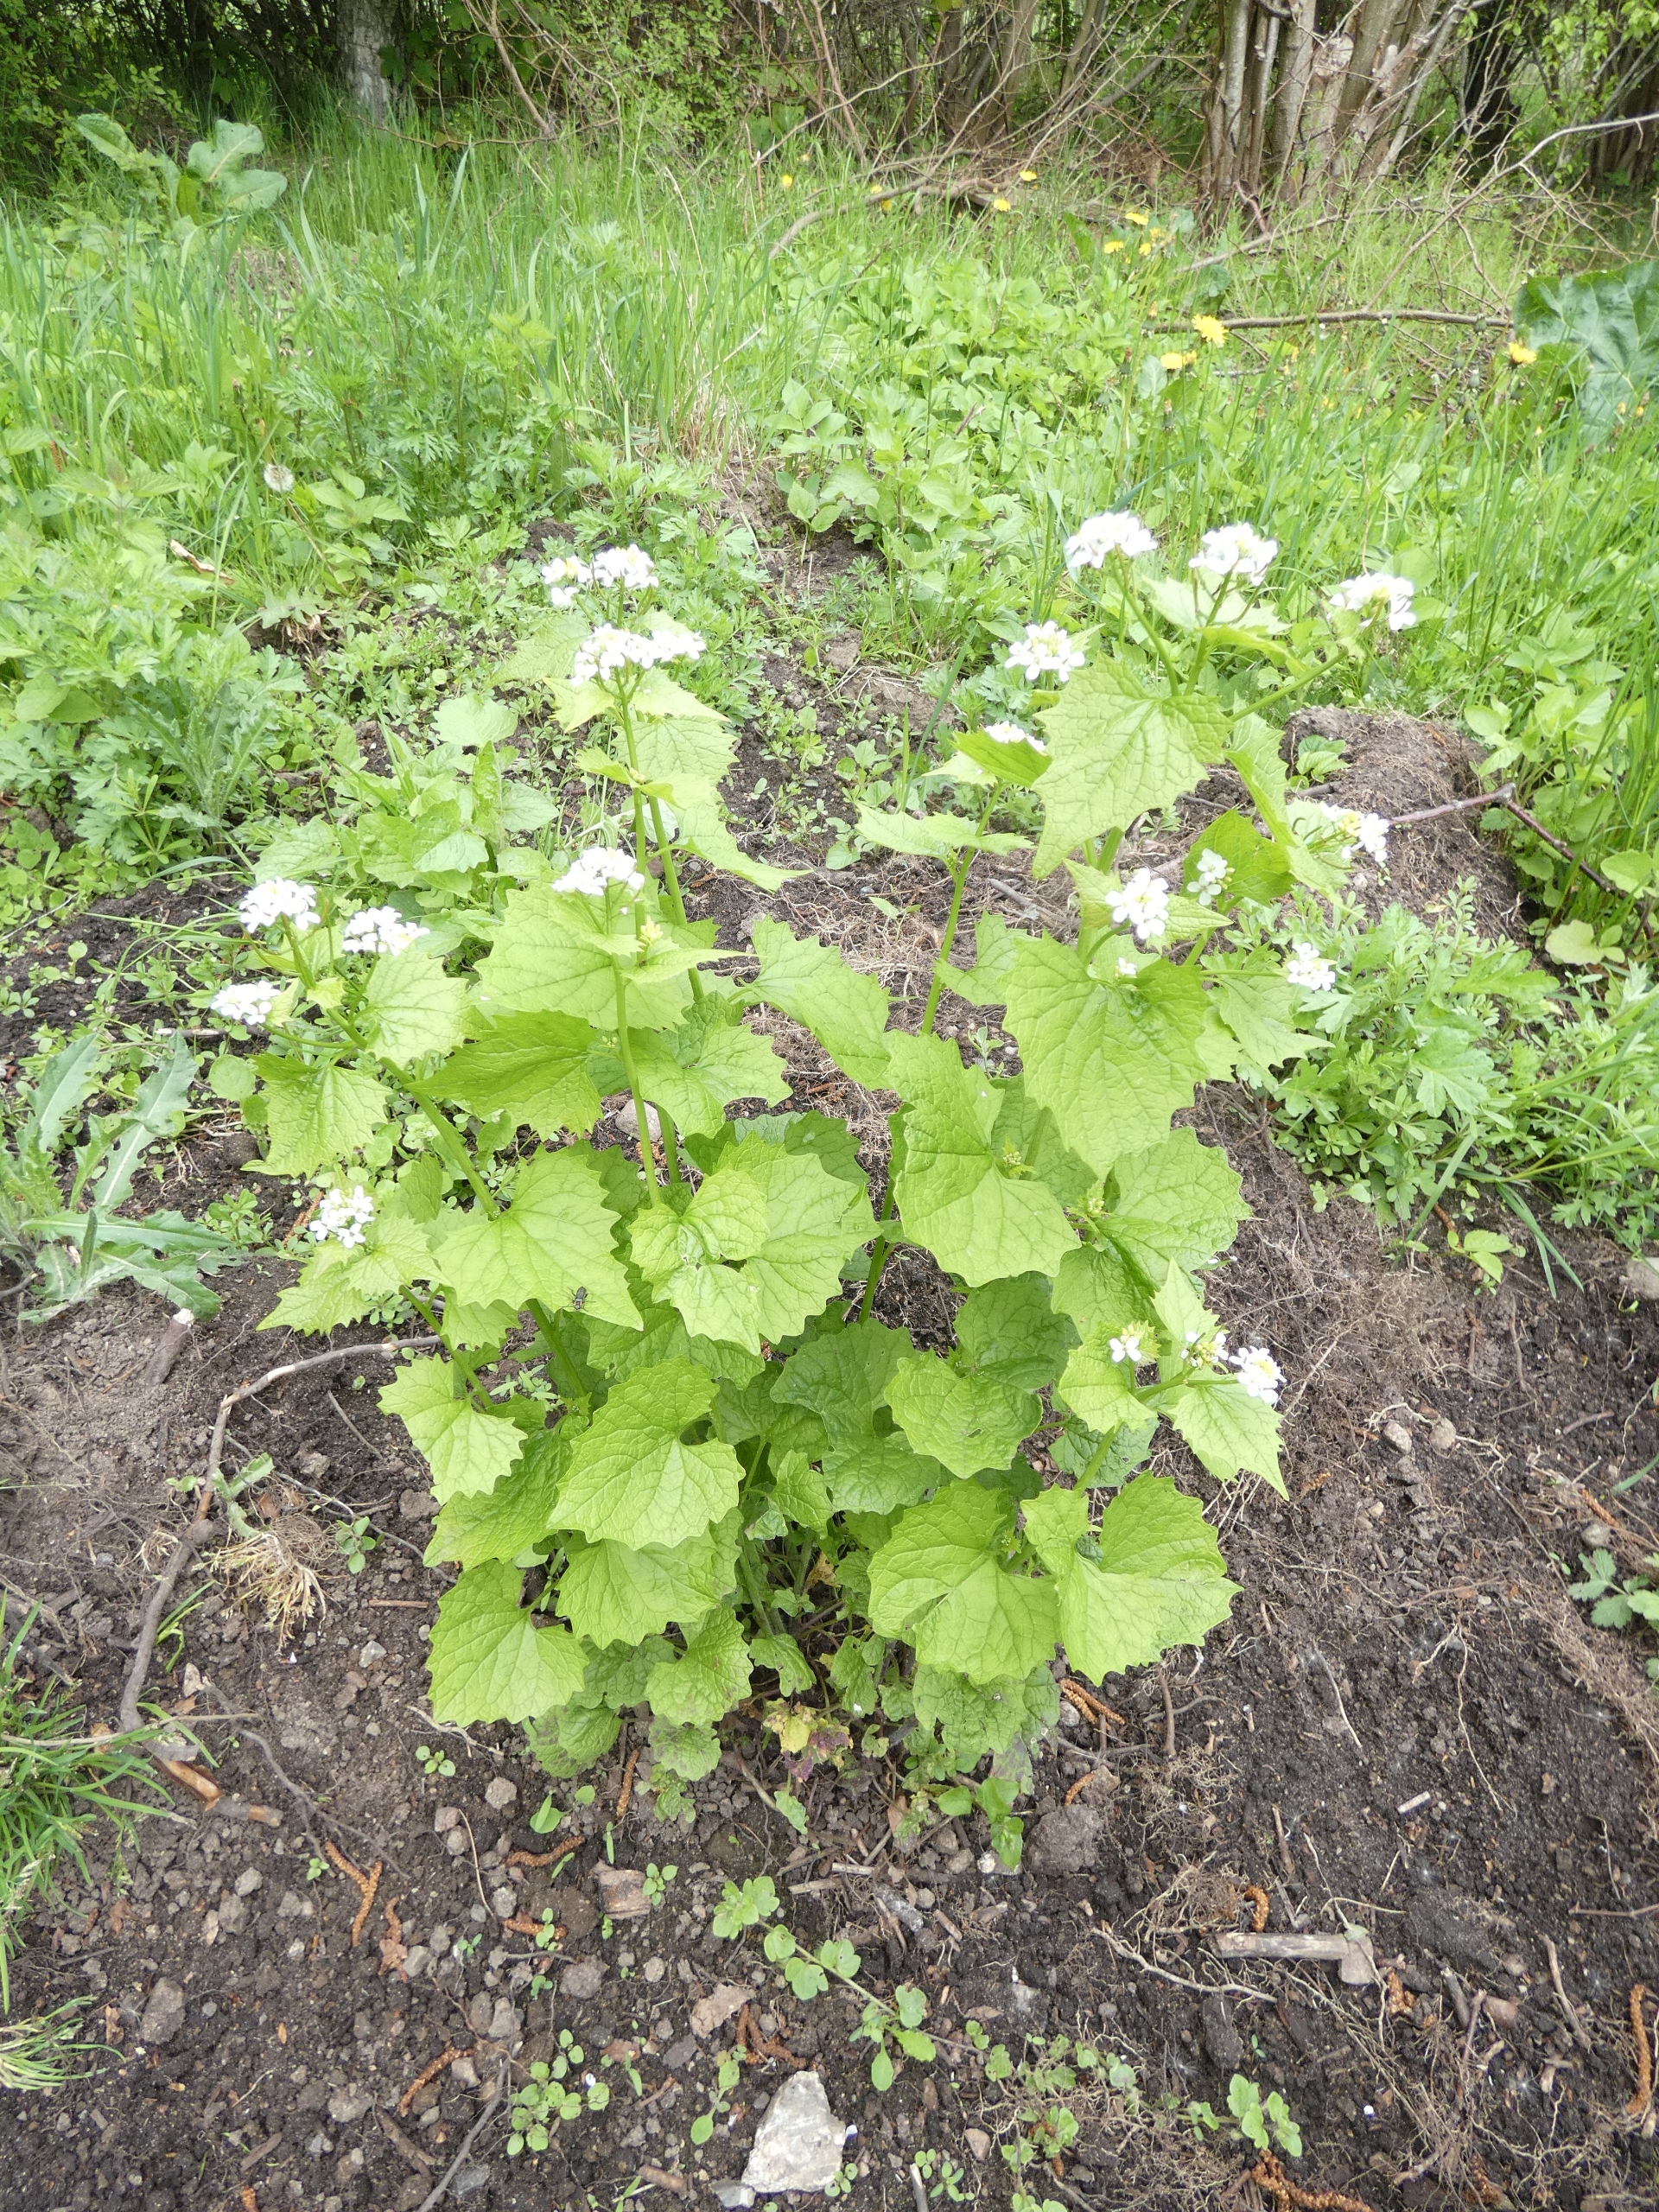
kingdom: Plantae
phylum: Tracheophyta
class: Magnoliopsida
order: Brassicales
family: Brassicaceae
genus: Alliaria
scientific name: Alliaria petiolata
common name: Løgkarse
